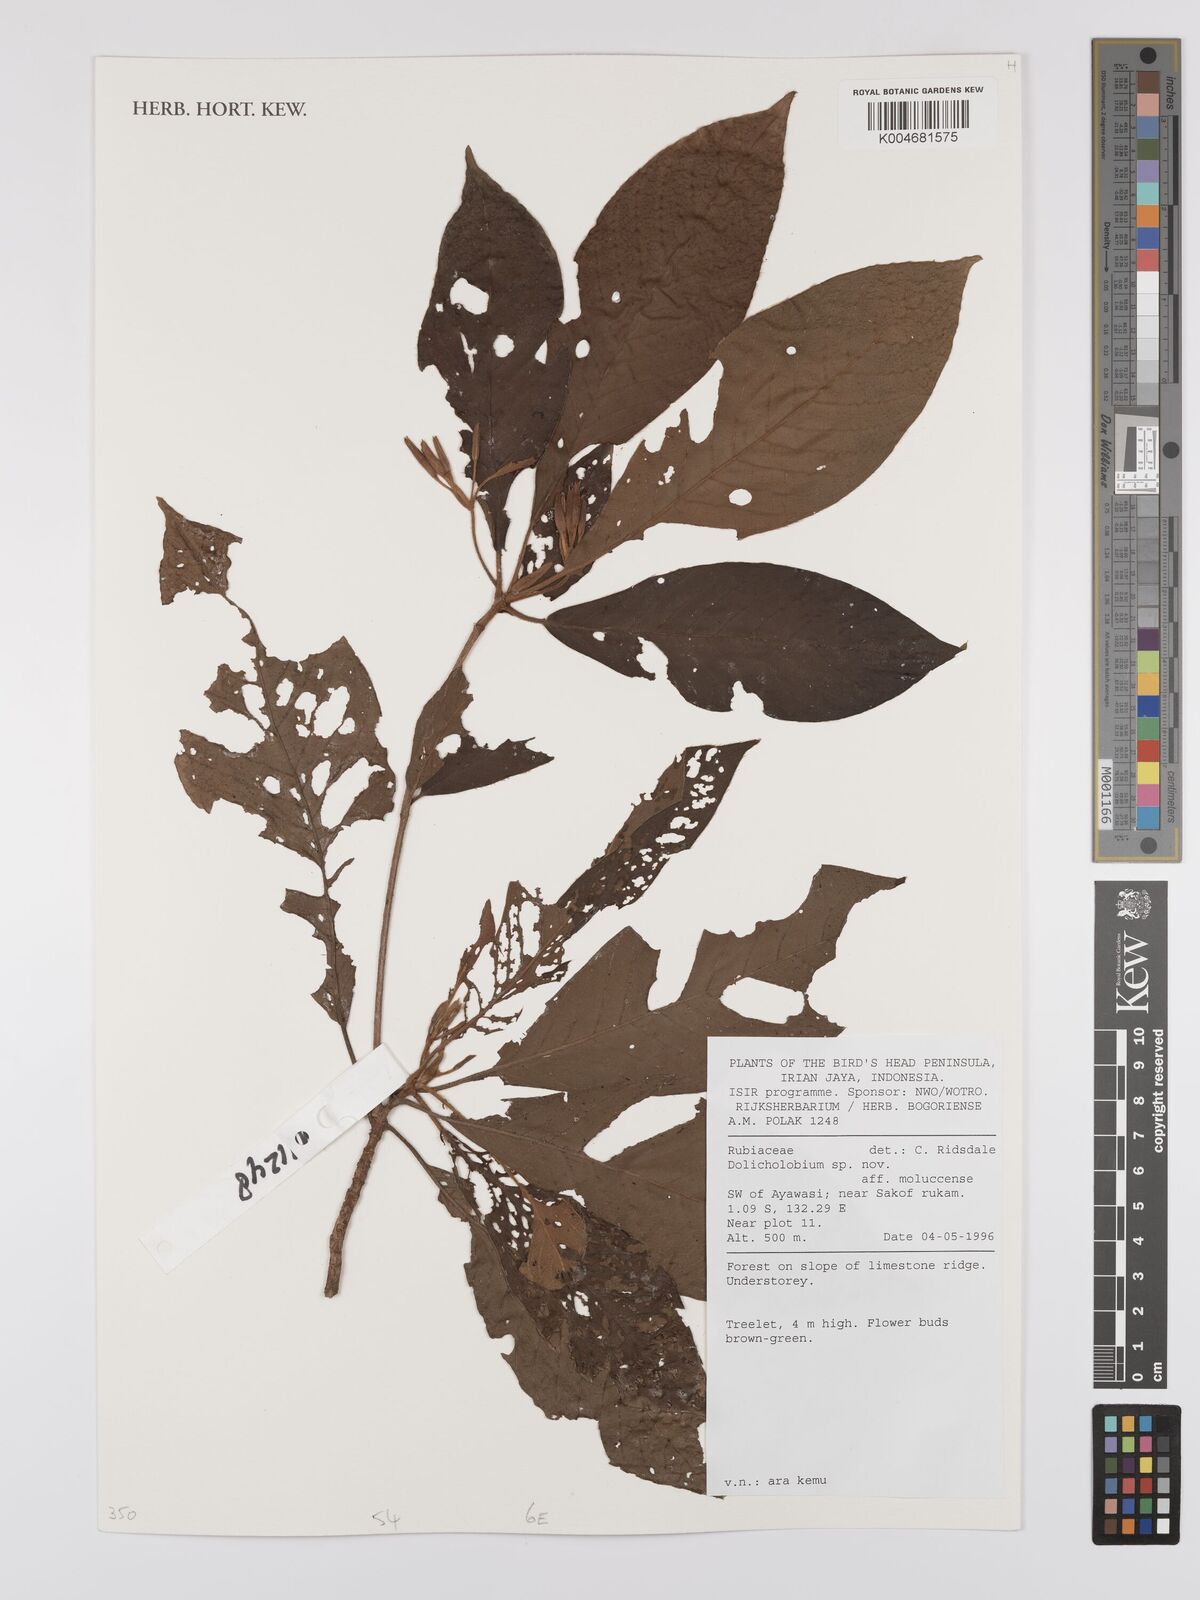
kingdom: Plantae
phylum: Tracheophyta
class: Magnoliopsida
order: Gentianales
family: Rubiaceae
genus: Dolicholobium
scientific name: Dolicholobium
